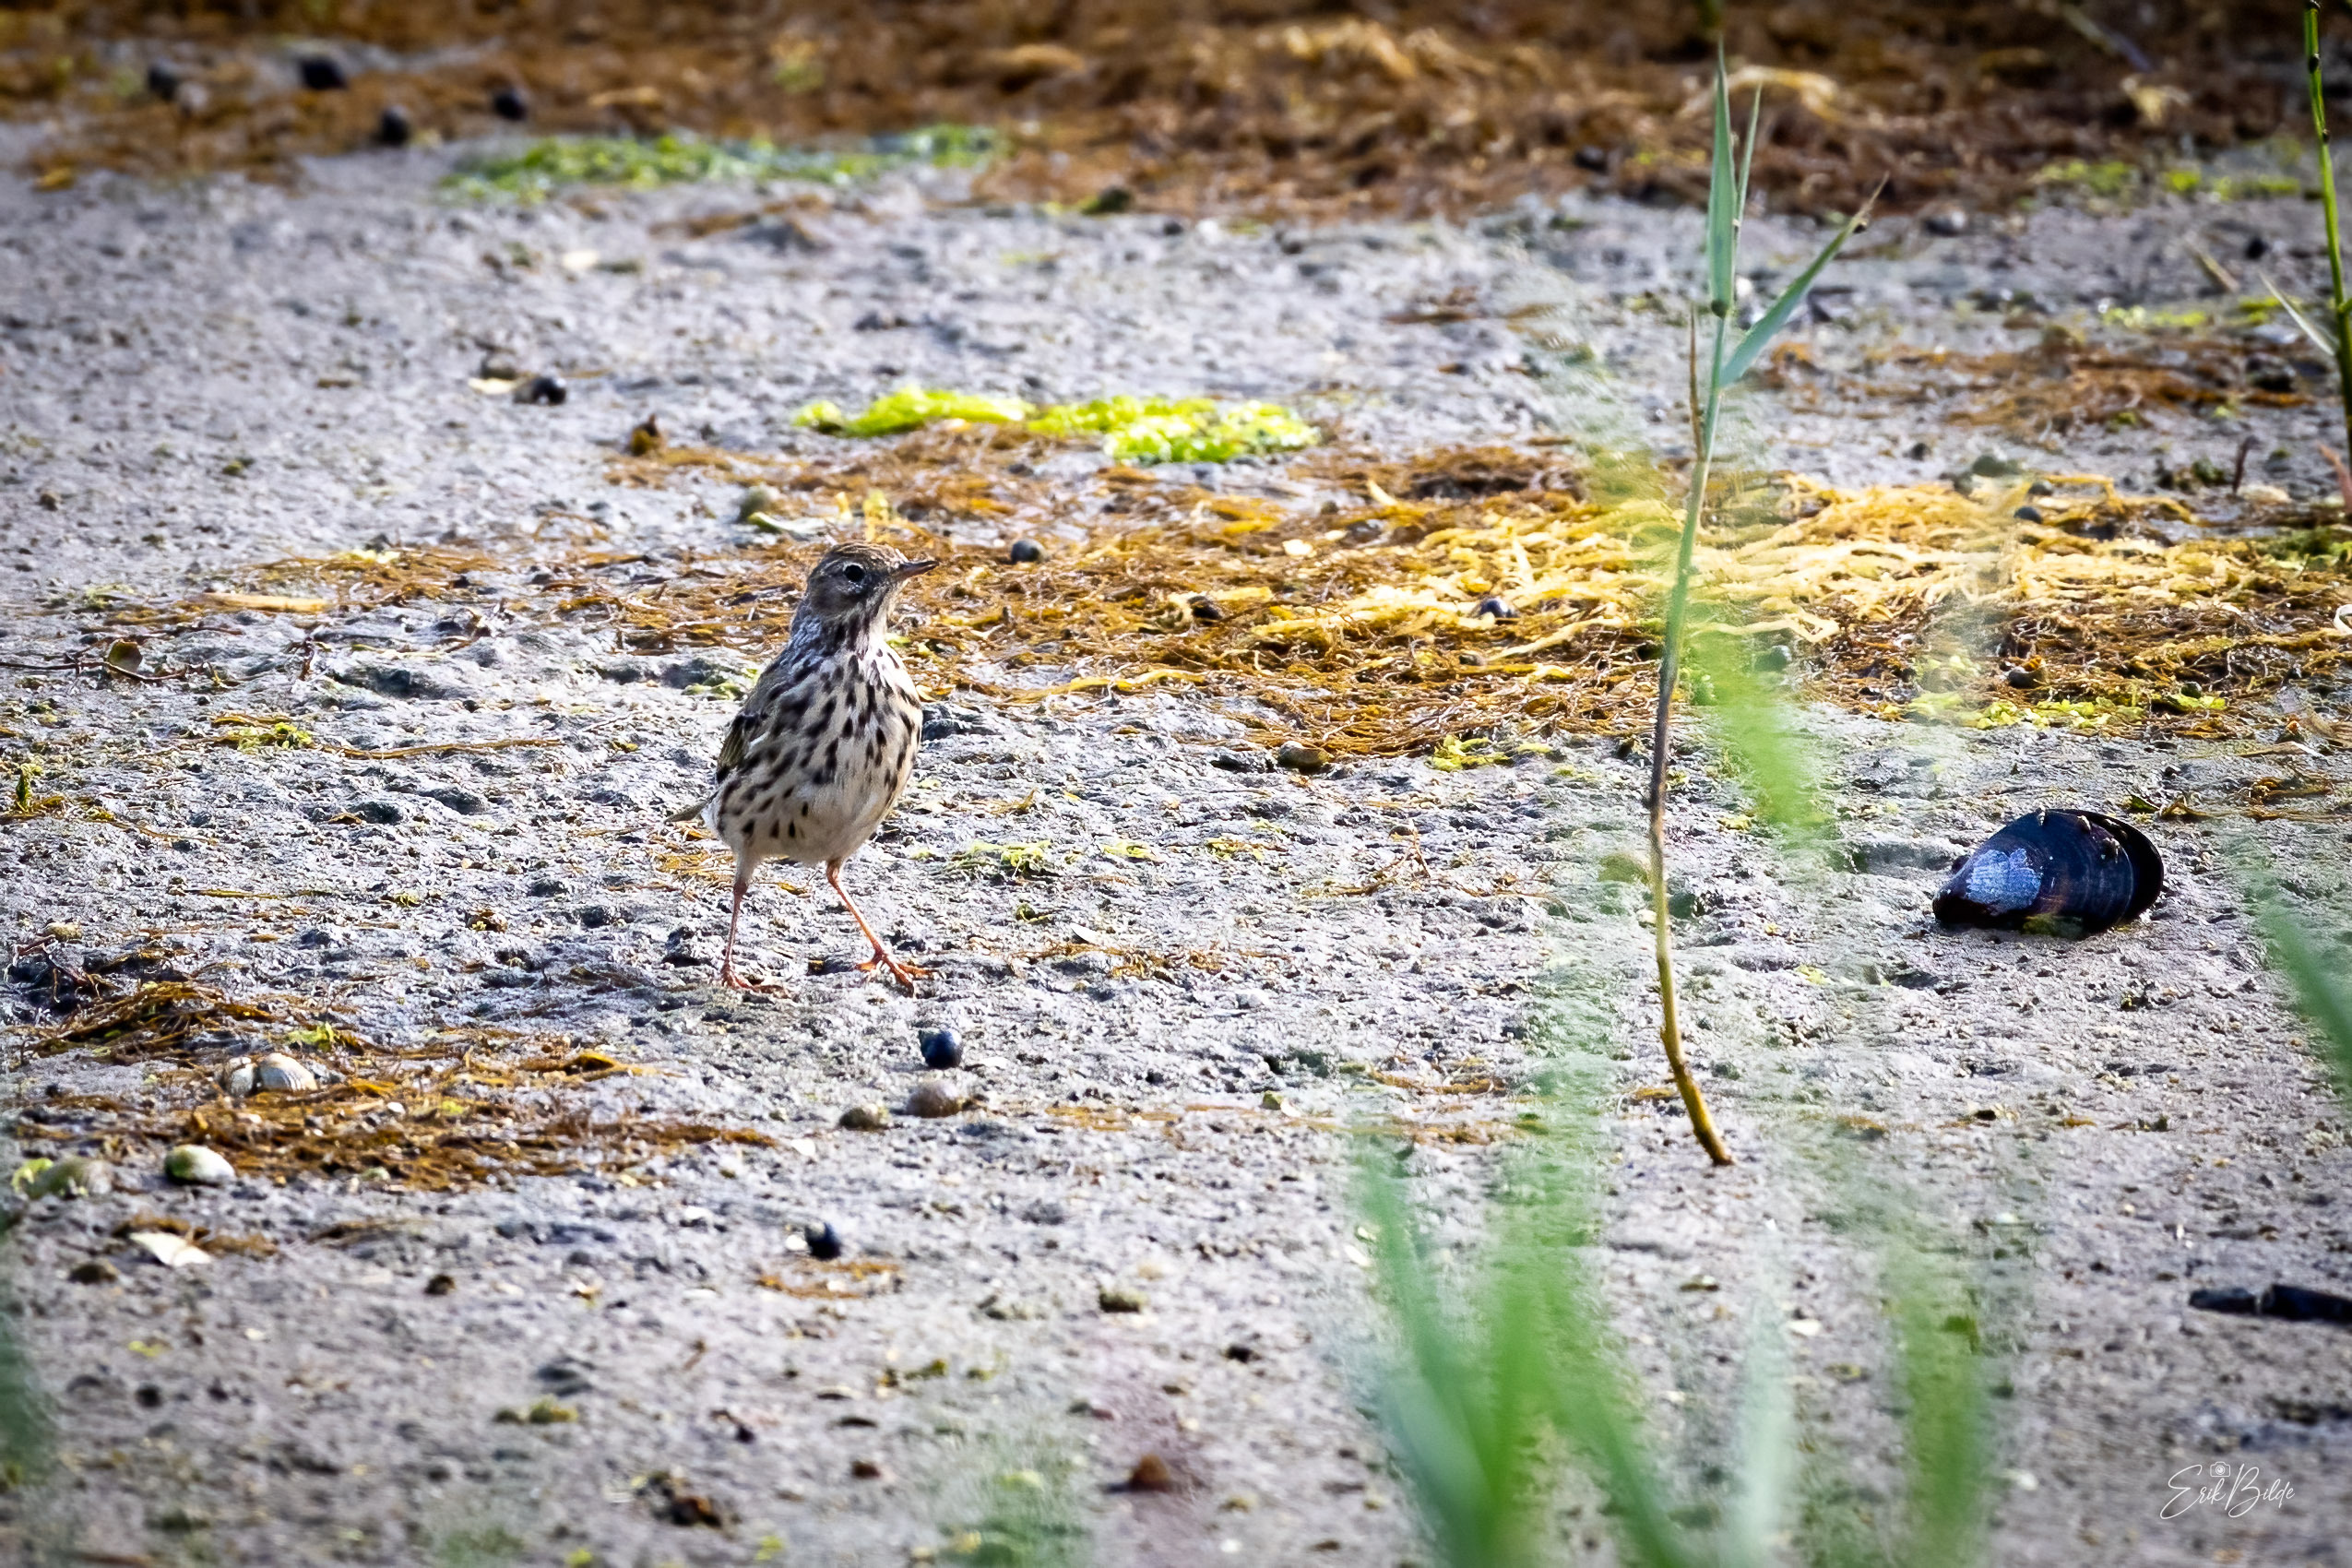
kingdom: Animalia
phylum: Chordata
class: Aves
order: Passeriformes
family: Motacillidae
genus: Anthus
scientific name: Anthus pratensis
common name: Engpiber
